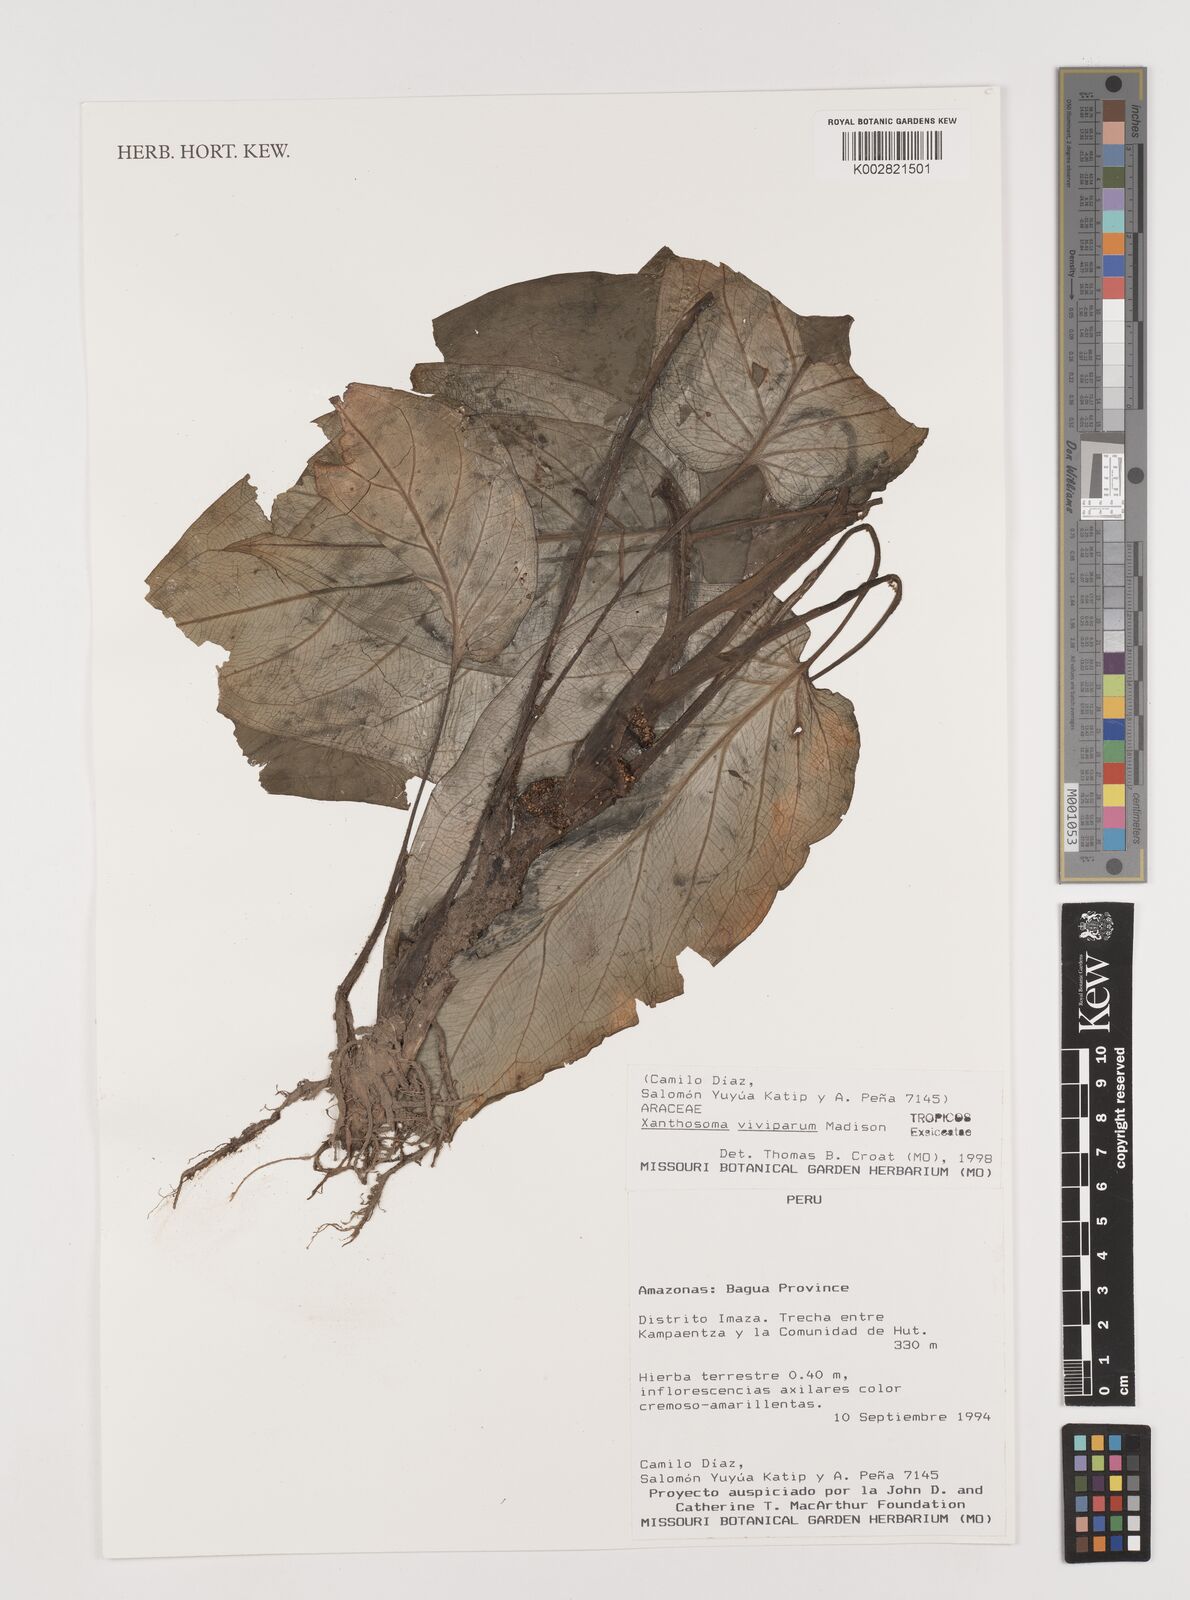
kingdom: Plantae
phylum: Tracheophyta
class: Liliopsida
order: Alismatales
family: Araceae
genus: Xanthosoma
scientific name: Xanthosoma viviparum
